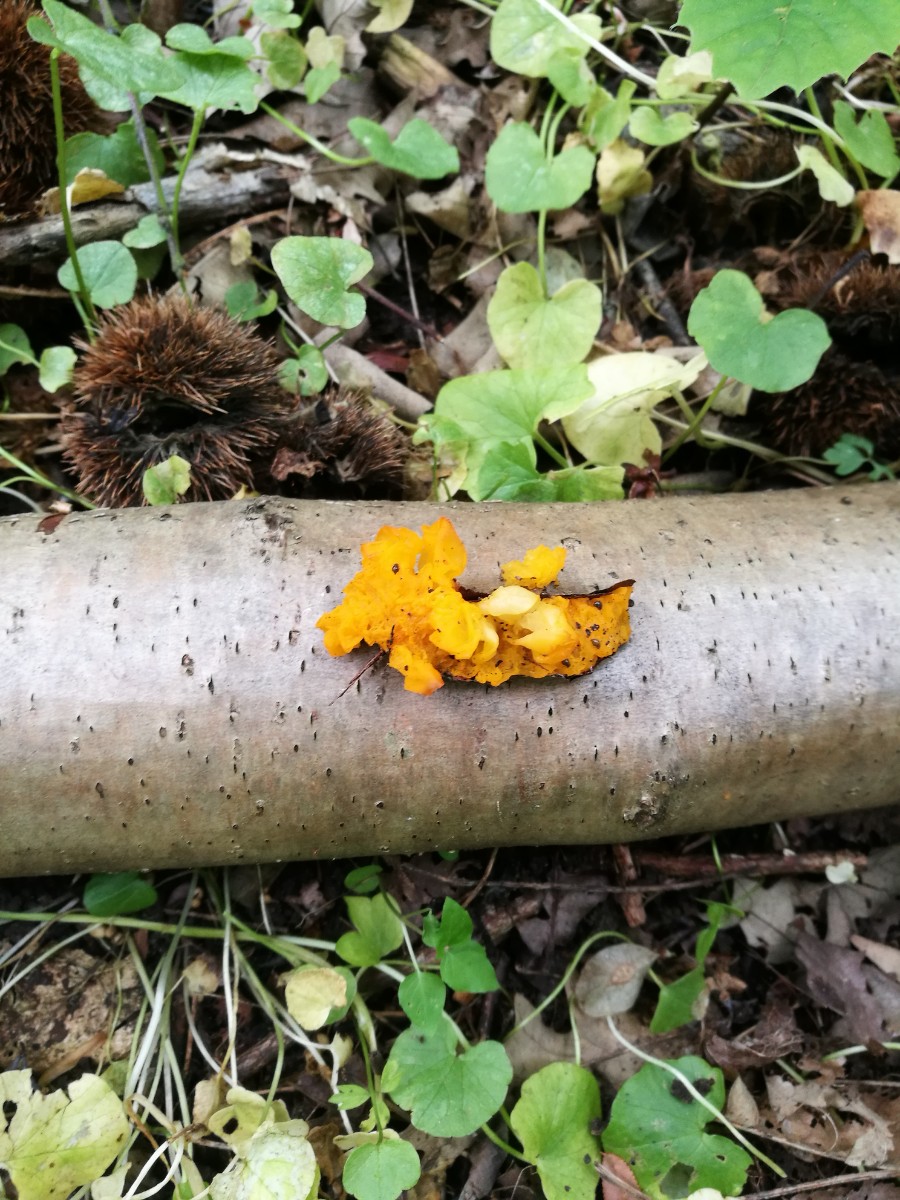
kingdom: Fungi
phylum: Basidiomycota
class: Tremellomycetes
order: Tremellales
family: Tremellaceae
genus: Tremella
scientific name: Tremella mesenterica
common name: gul bævresvamp
